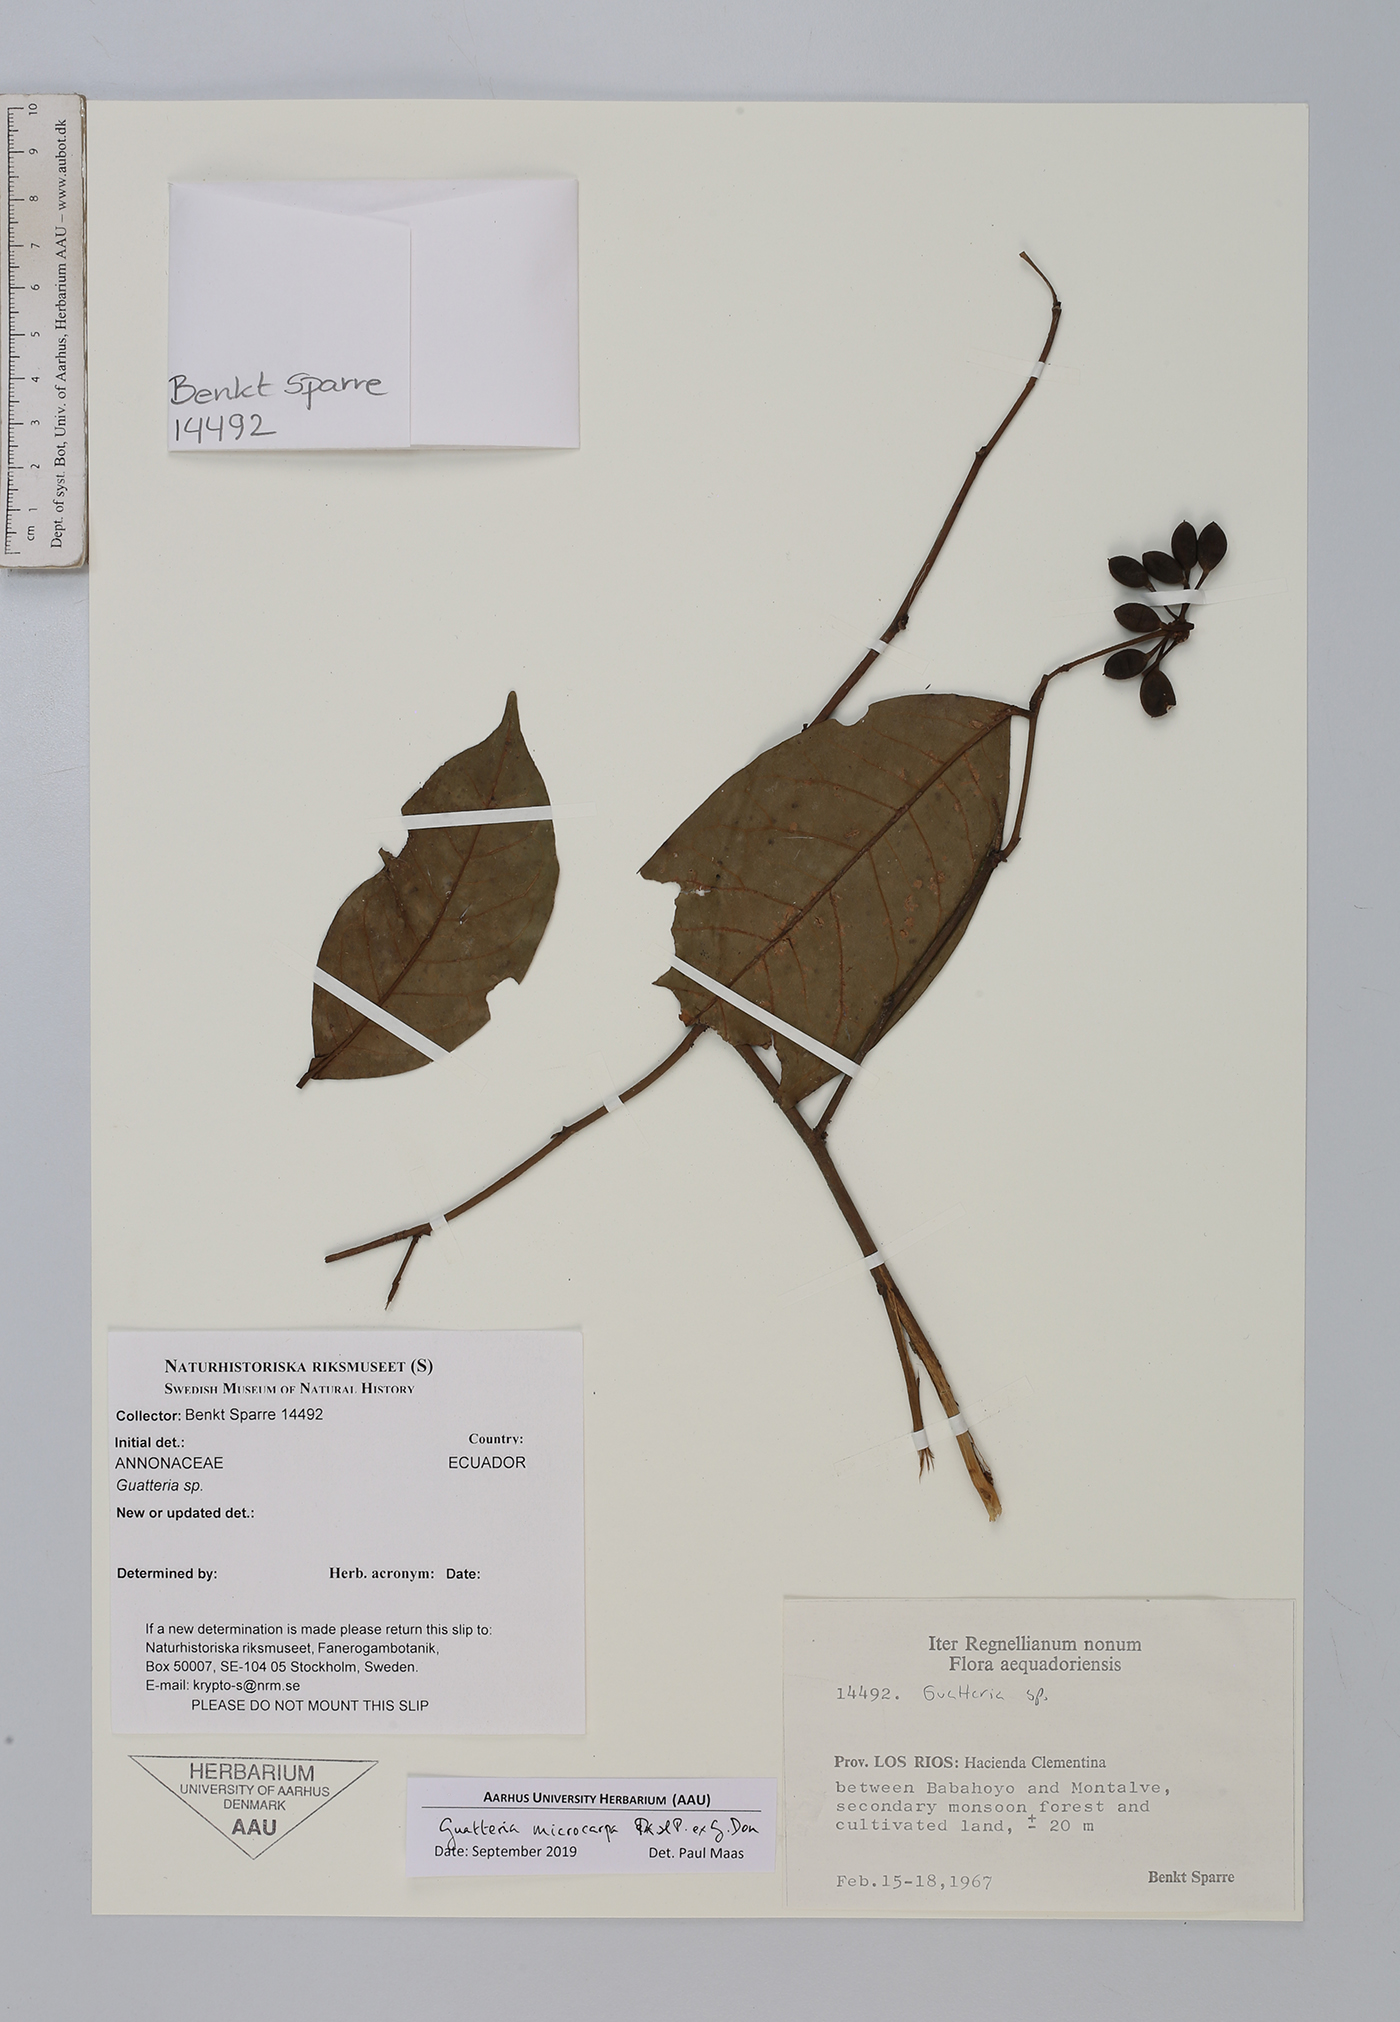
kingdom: Plantae
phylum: Tracheophyta
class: Magnoliopsida
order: Magnoliales
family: Annonaceae
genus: Guatteria
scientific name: Guatteria microcarpa
